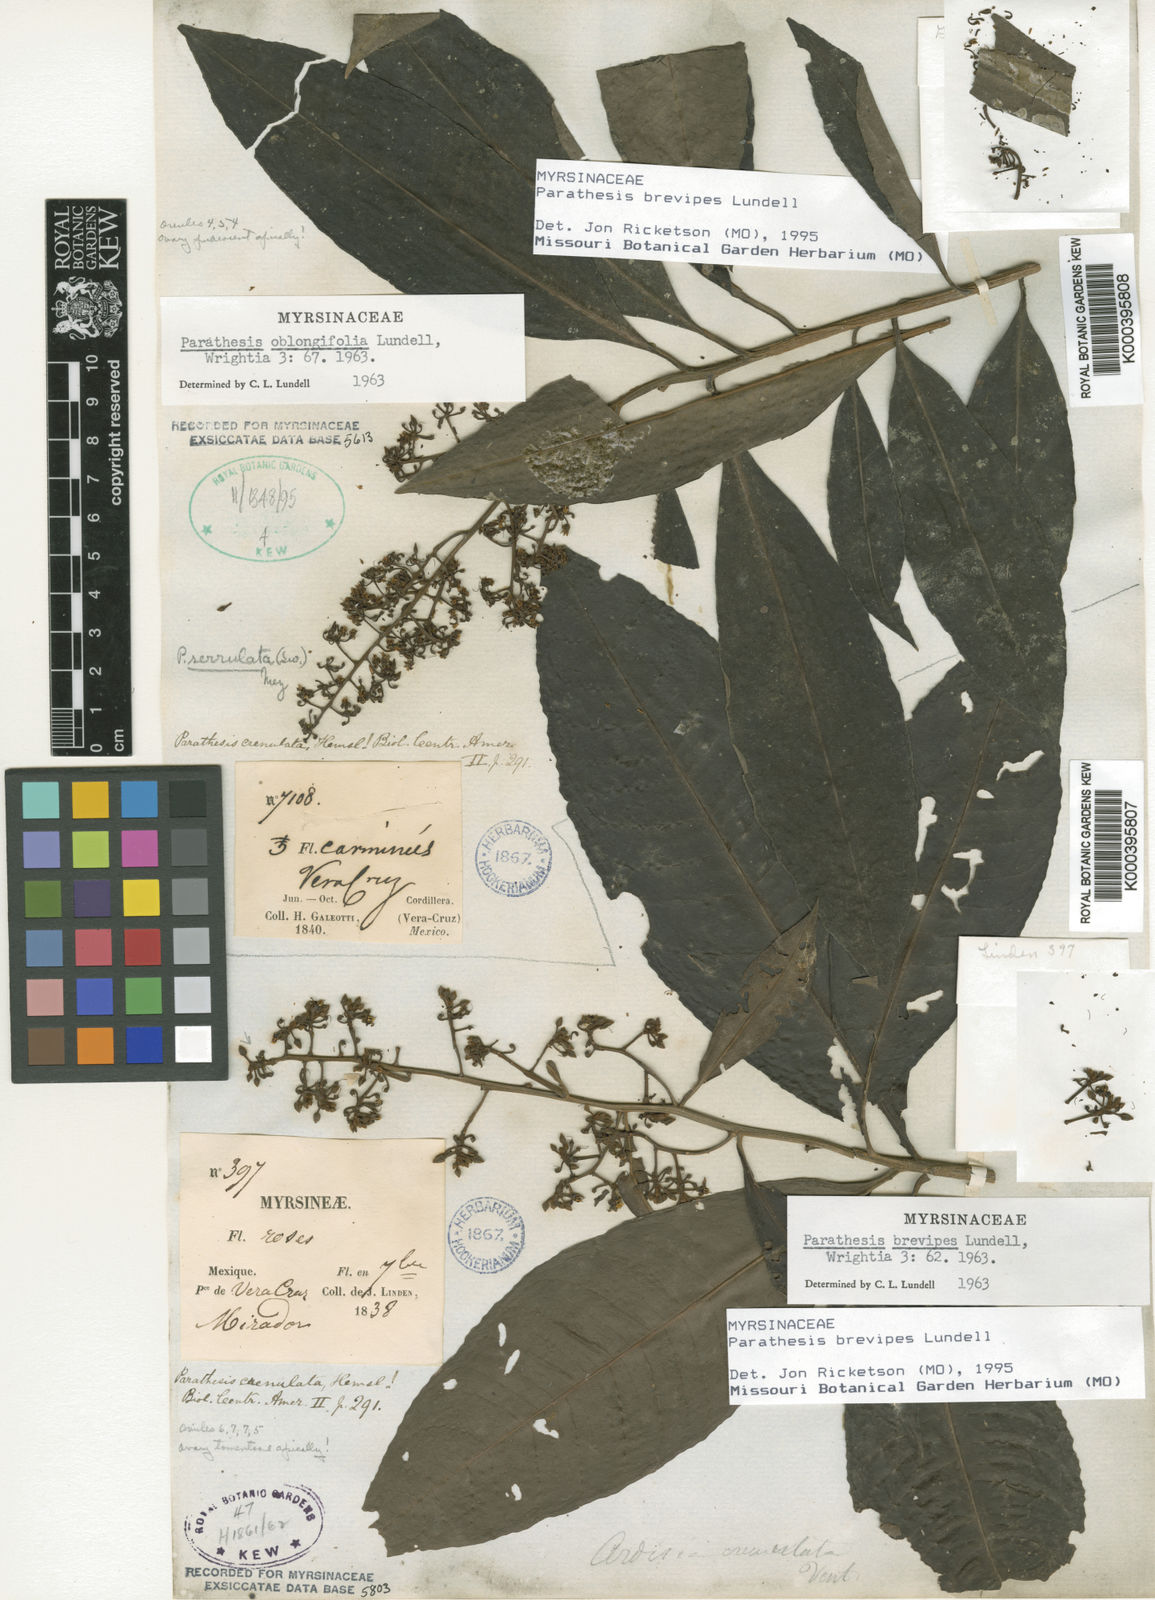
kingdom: Plantae
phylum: Tracheophyta
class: Magnoliopsida
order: Ericales
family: Primulaceae
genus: Parathesis
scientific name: Parathesis donnell-smithii
